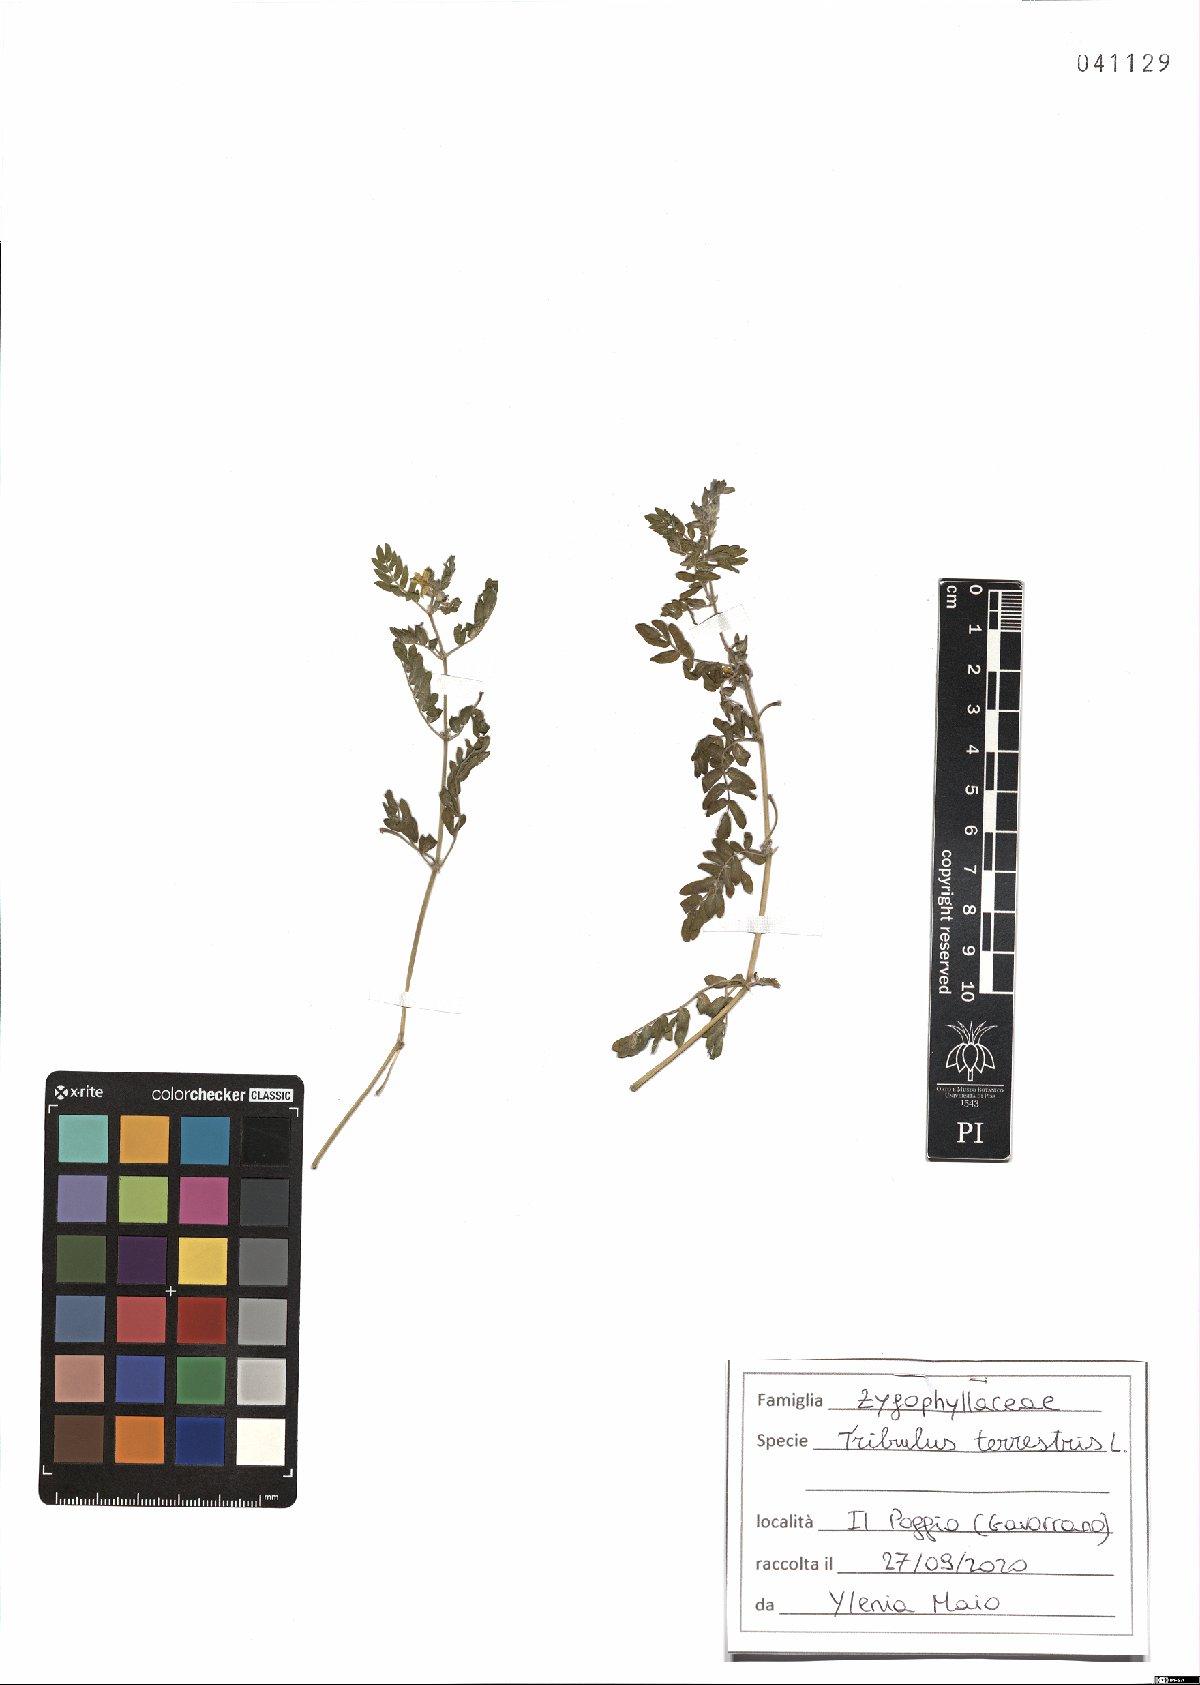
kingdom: Plantae
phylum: Tracheophyta
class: Magnoliopsida
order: Zygophyllales
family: Zygophyllaceae
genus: Tribulus
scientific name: Tribulus terrestris
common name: Puncturevine
